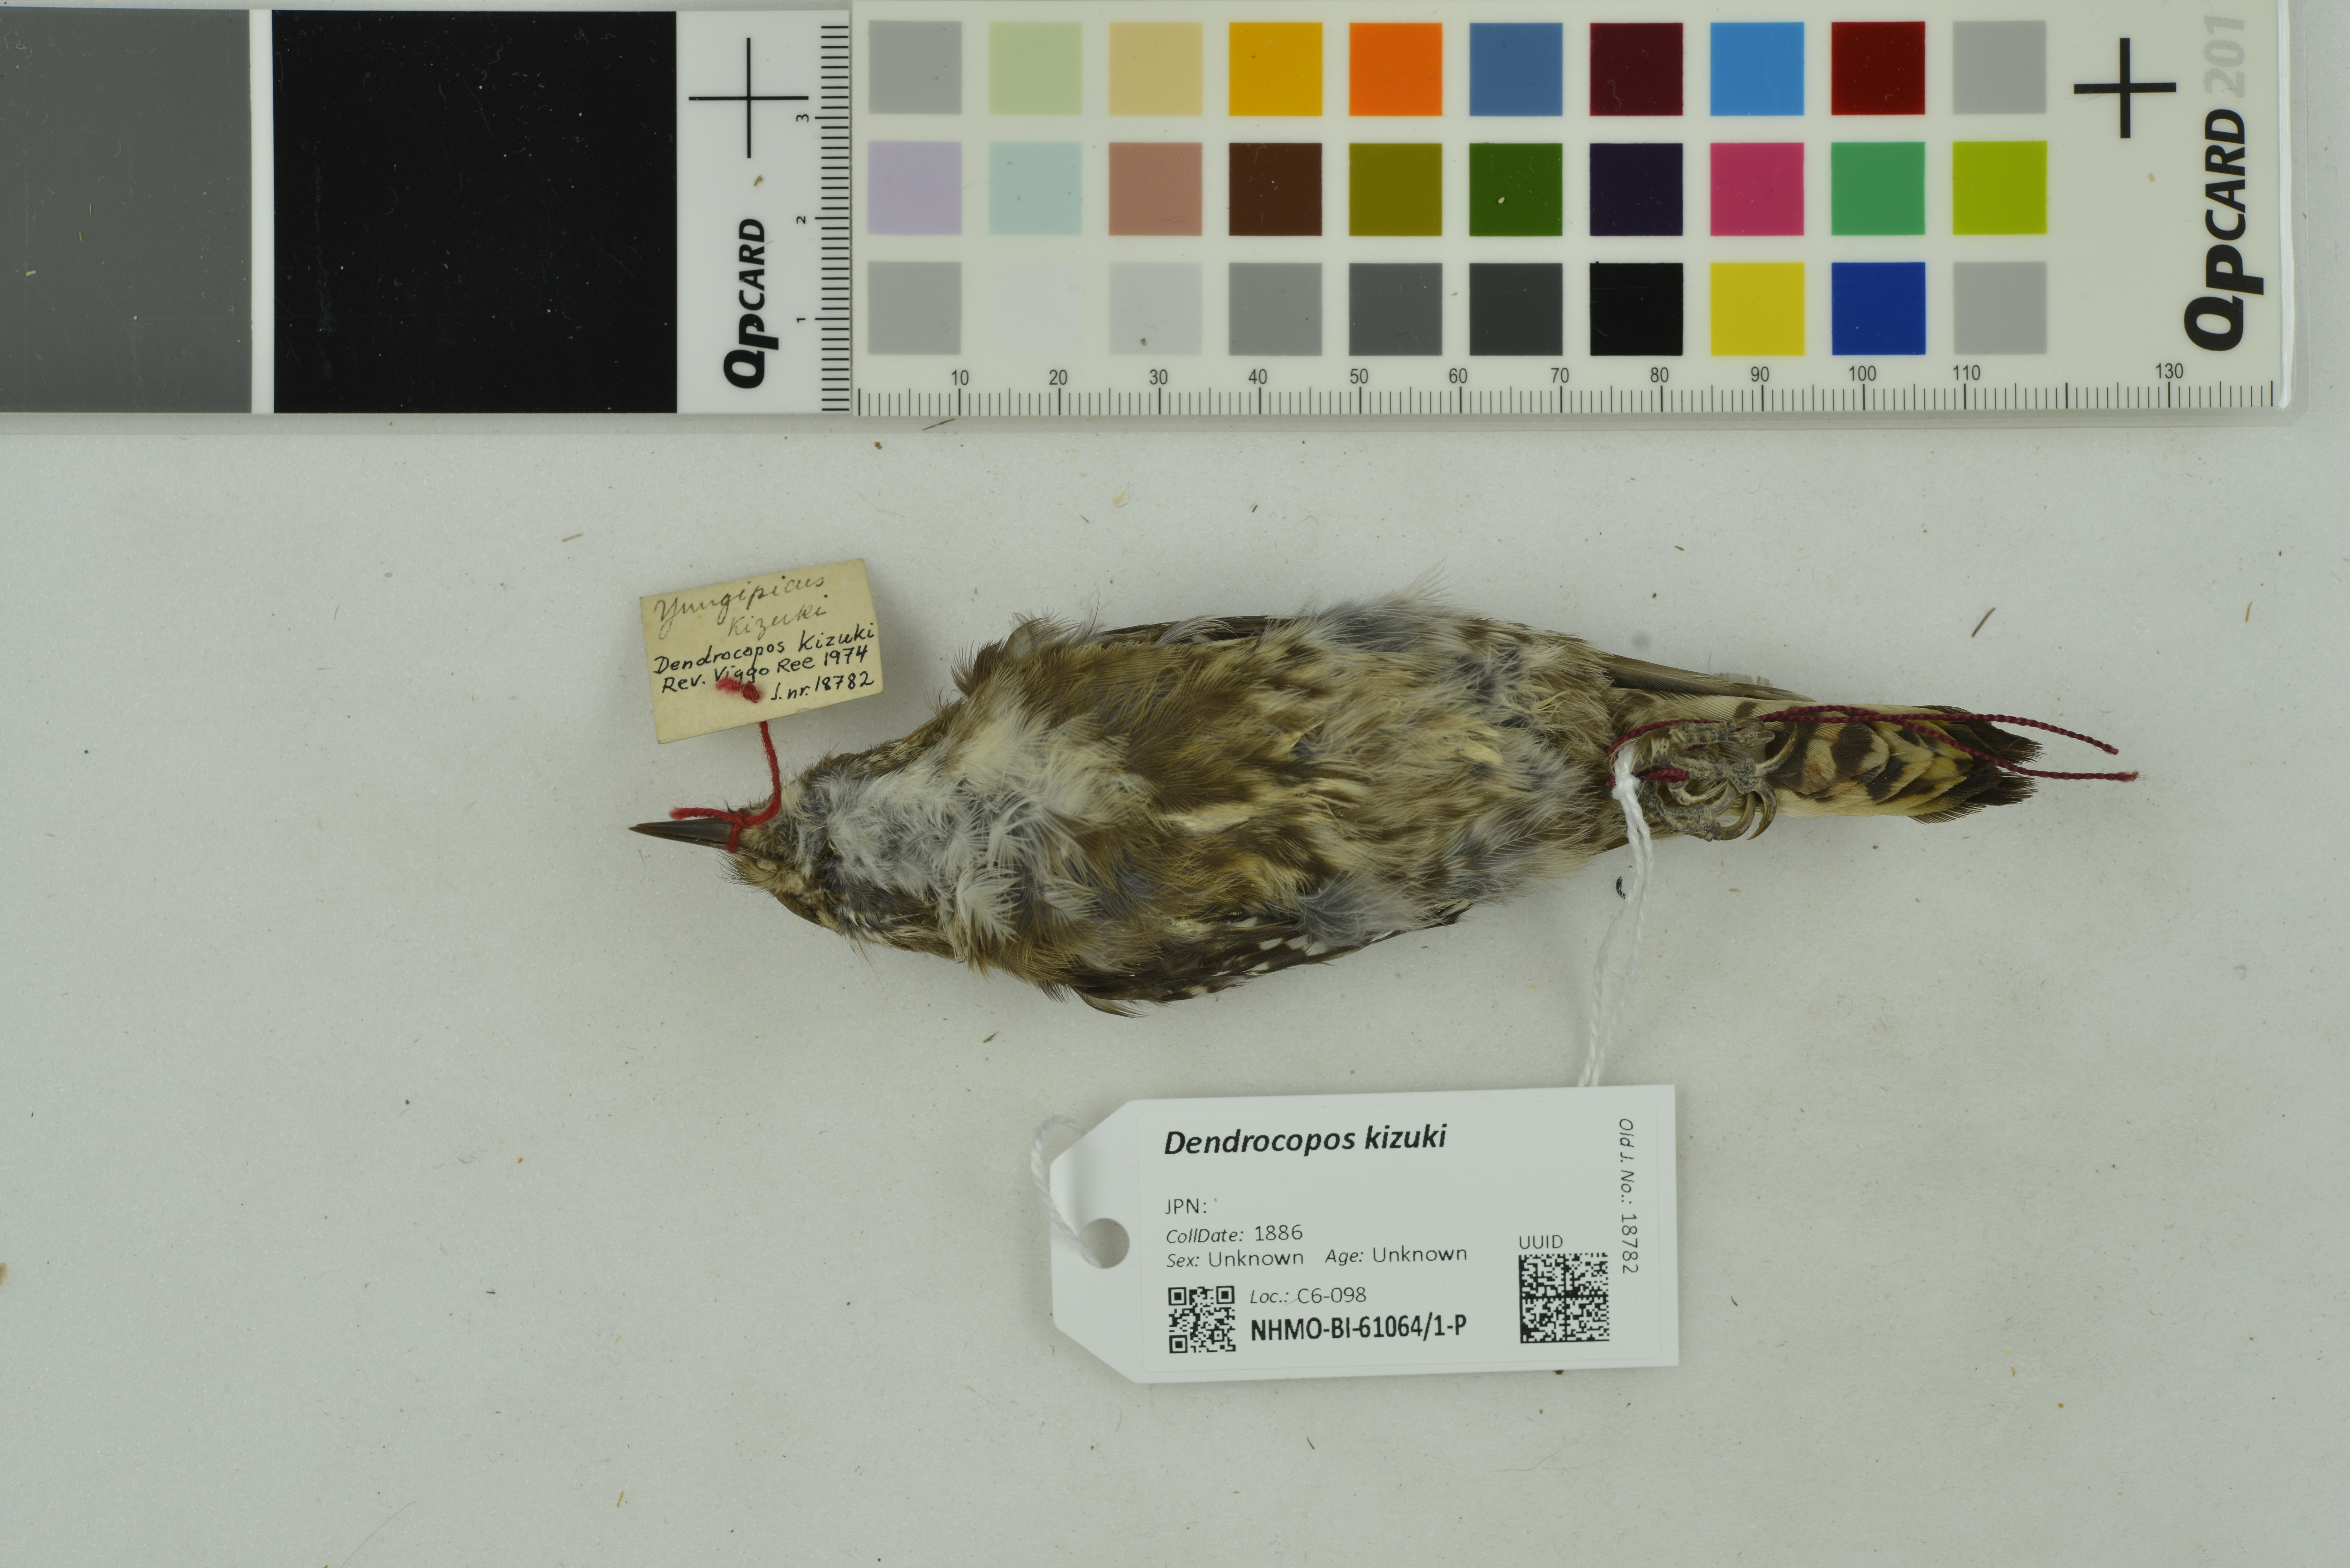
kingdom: Animalia
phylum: Chordata
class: Aves
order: Piciformes
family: Picidae
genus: Yungipicus
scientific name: Yungipicus kizuki
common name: Japanese pygmy woodpecker
